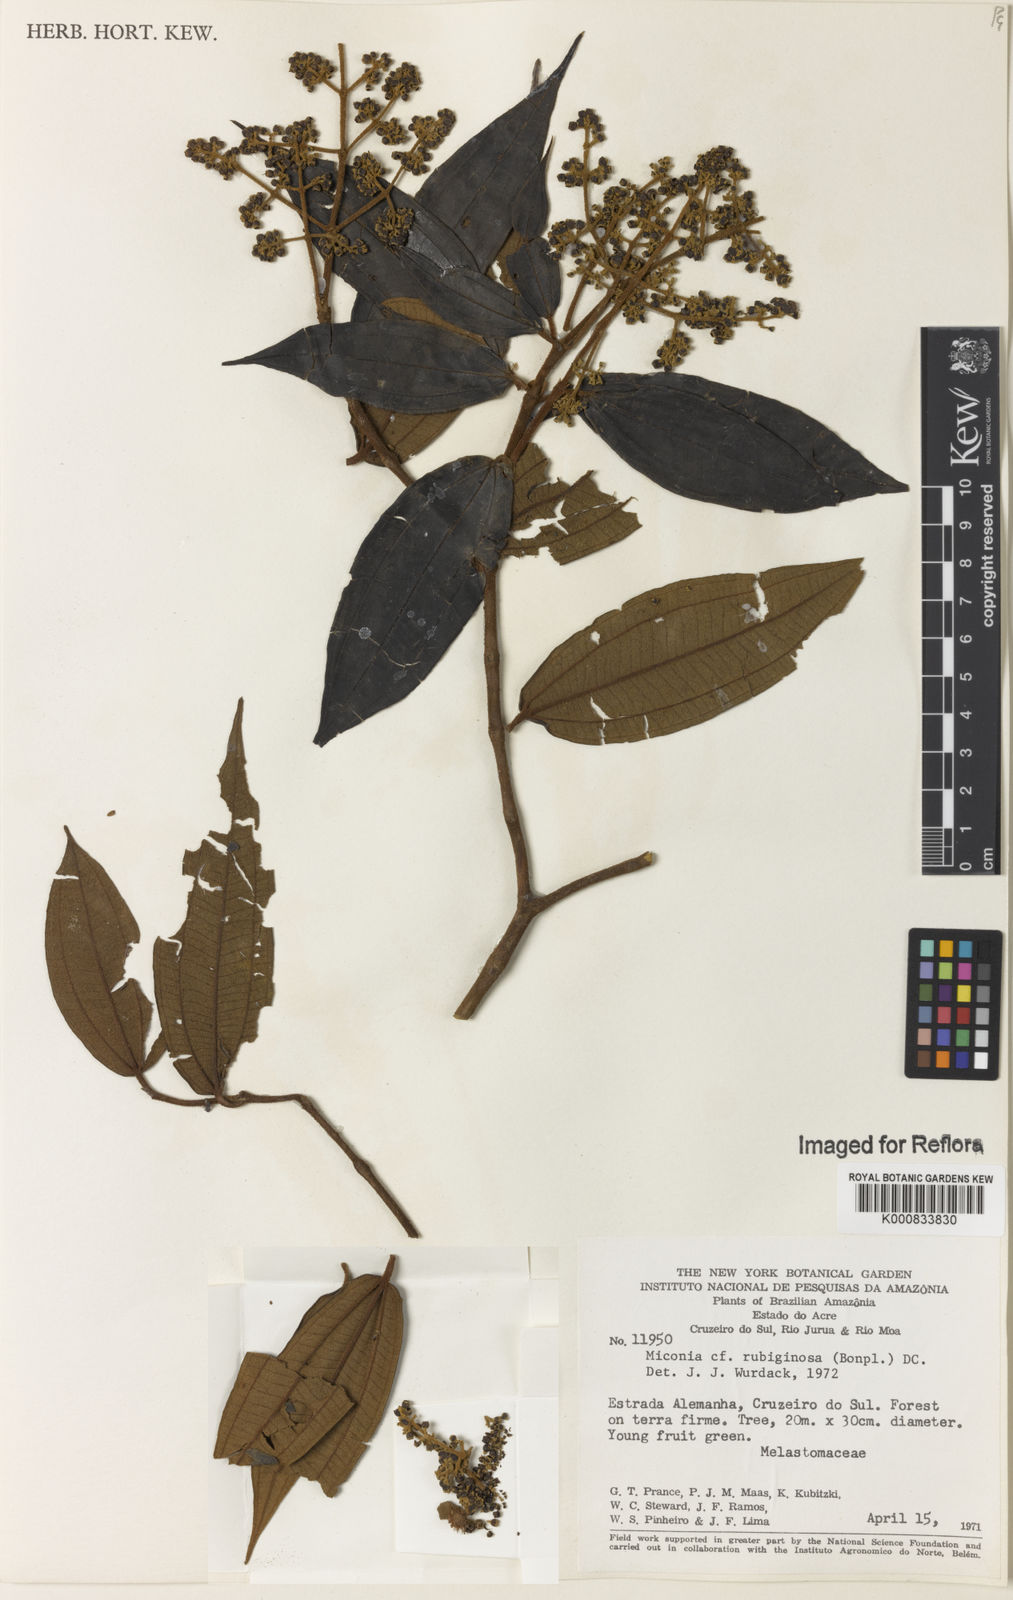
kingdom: Plantae
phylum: Tracheophyta
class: Magnoliopsida
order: Myrtales
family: Melastomataceae
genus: Miconia
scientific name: Miconia rubiginosa
